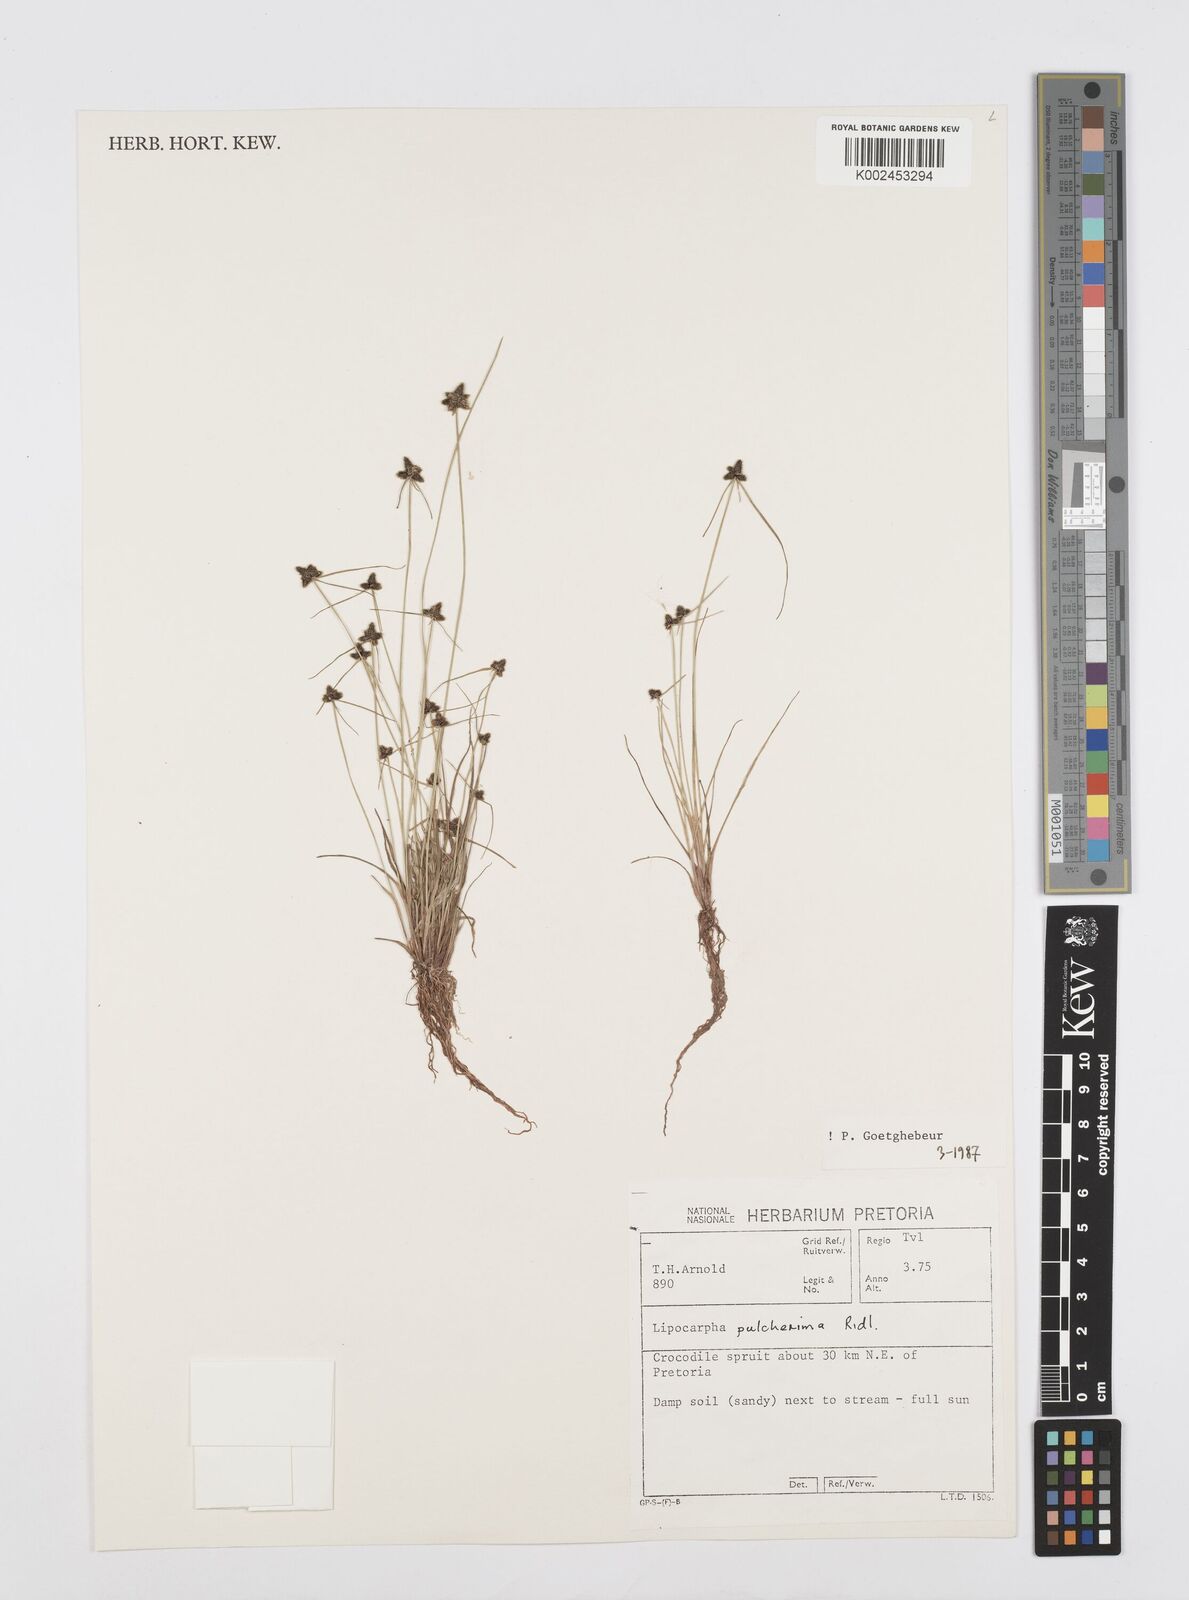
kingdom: Plantae
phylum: Tracheophyta
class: Liliopsida
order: Poales
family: Cyperaceae
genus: Cyperus
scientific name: Cyperus
